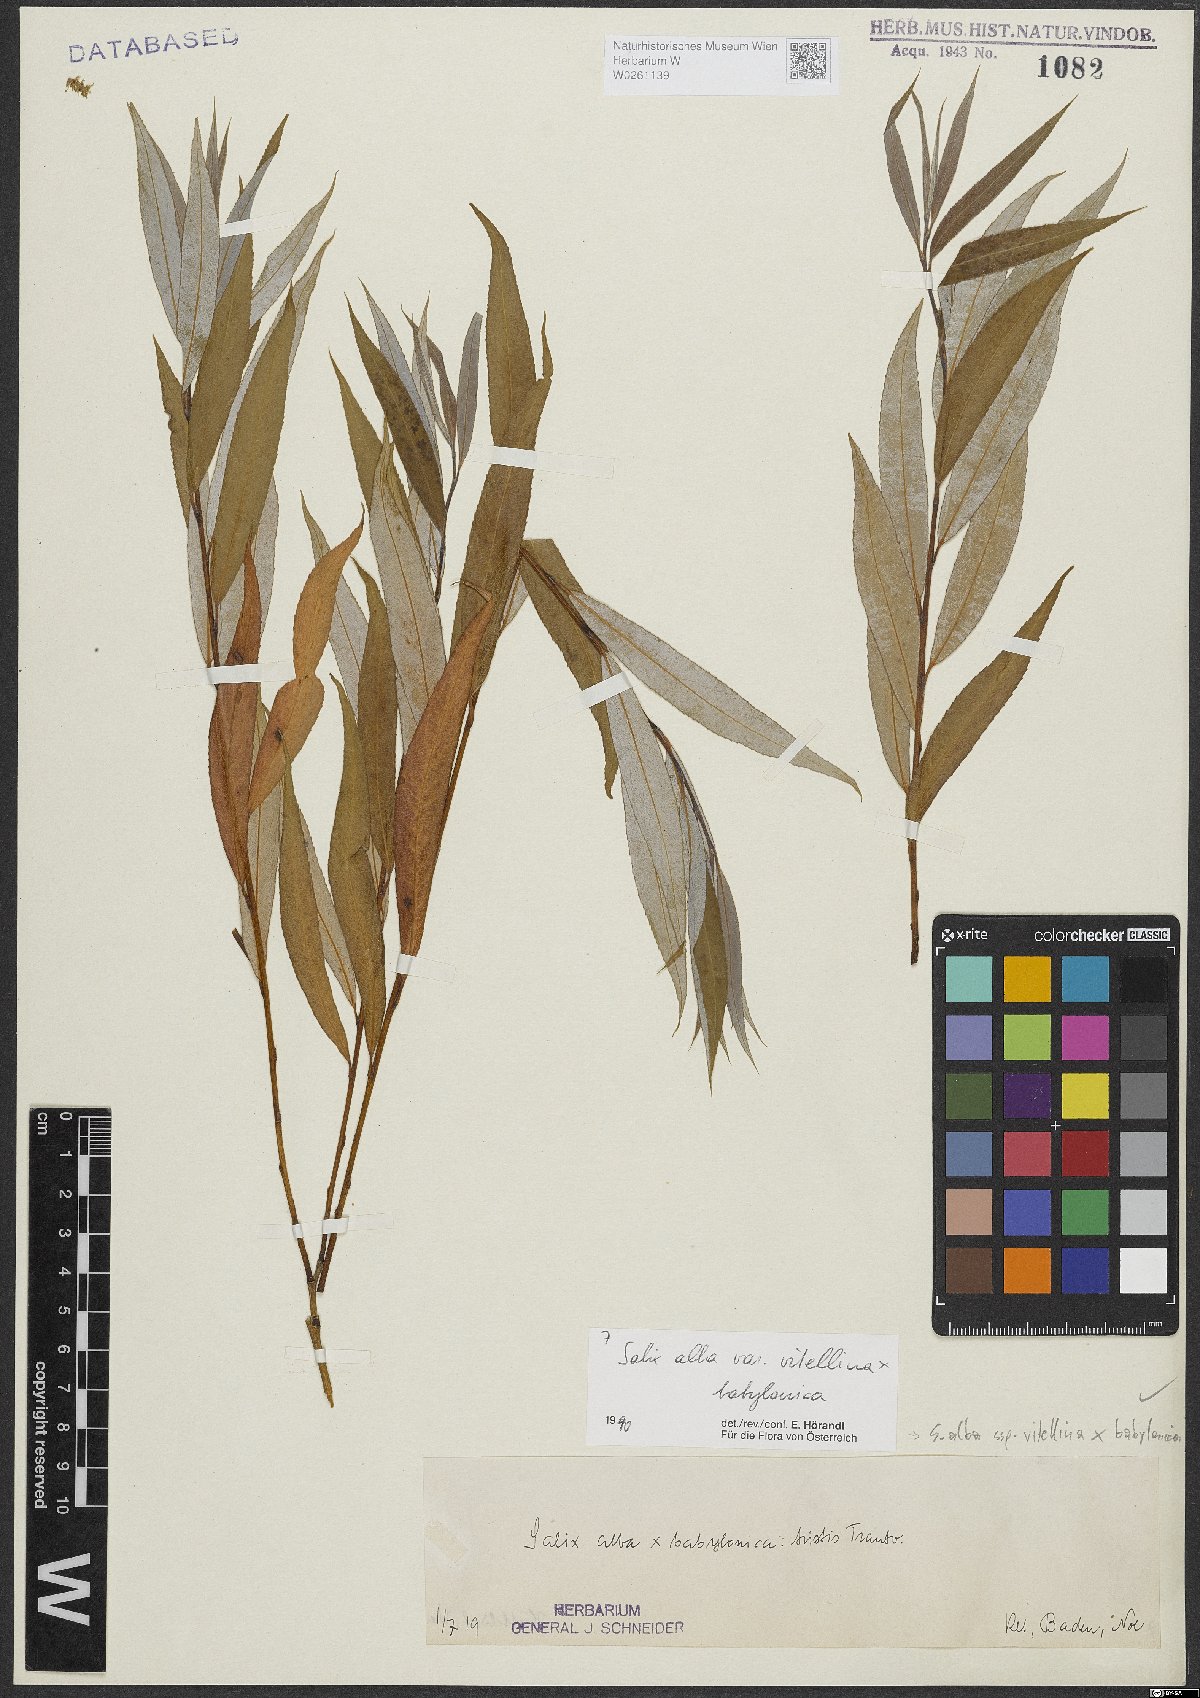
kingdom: Plantae
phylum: Tracheophyta
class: Magnoliopsida
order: Malpighiales
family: Salicaceae
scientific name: Salicaceae
